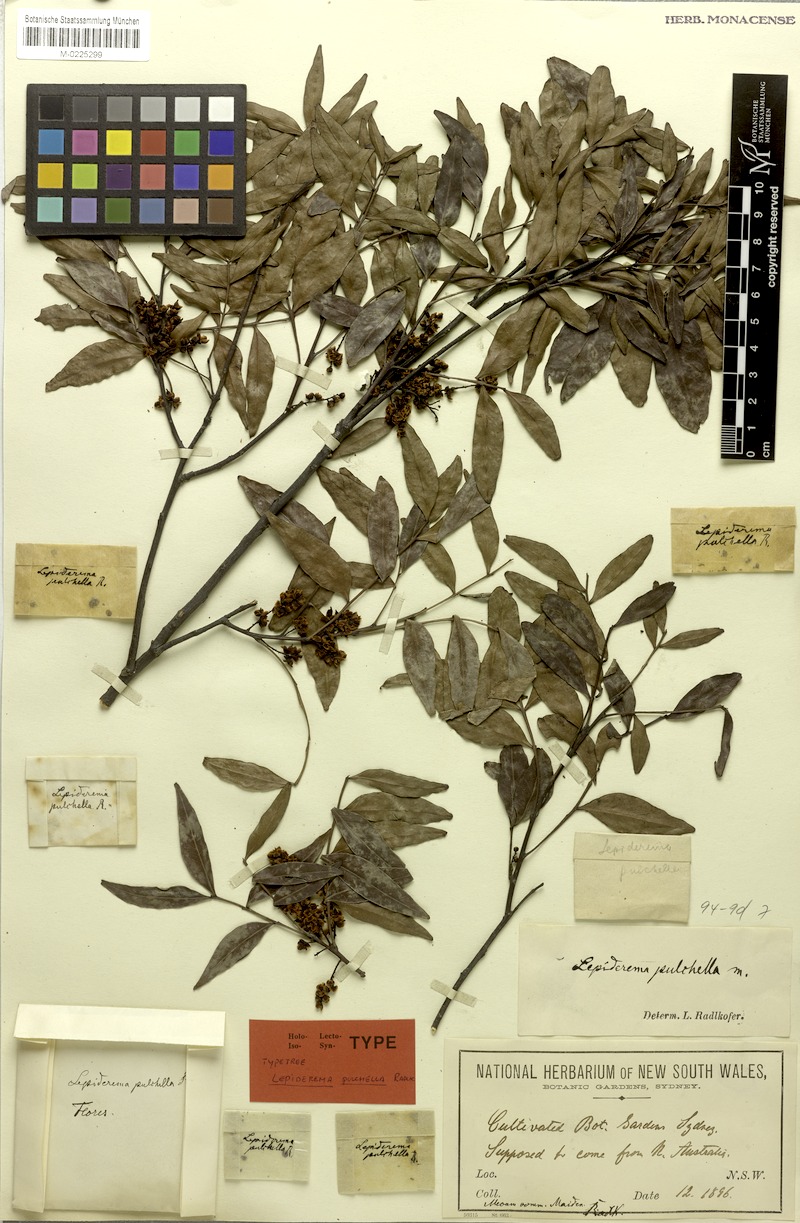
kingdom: Plantae
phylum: Tracheophyta
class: Magnoliopsida
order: Sapindales
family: Sapindaceae
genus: Lepiderema
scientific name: Lepiderema pulchella
